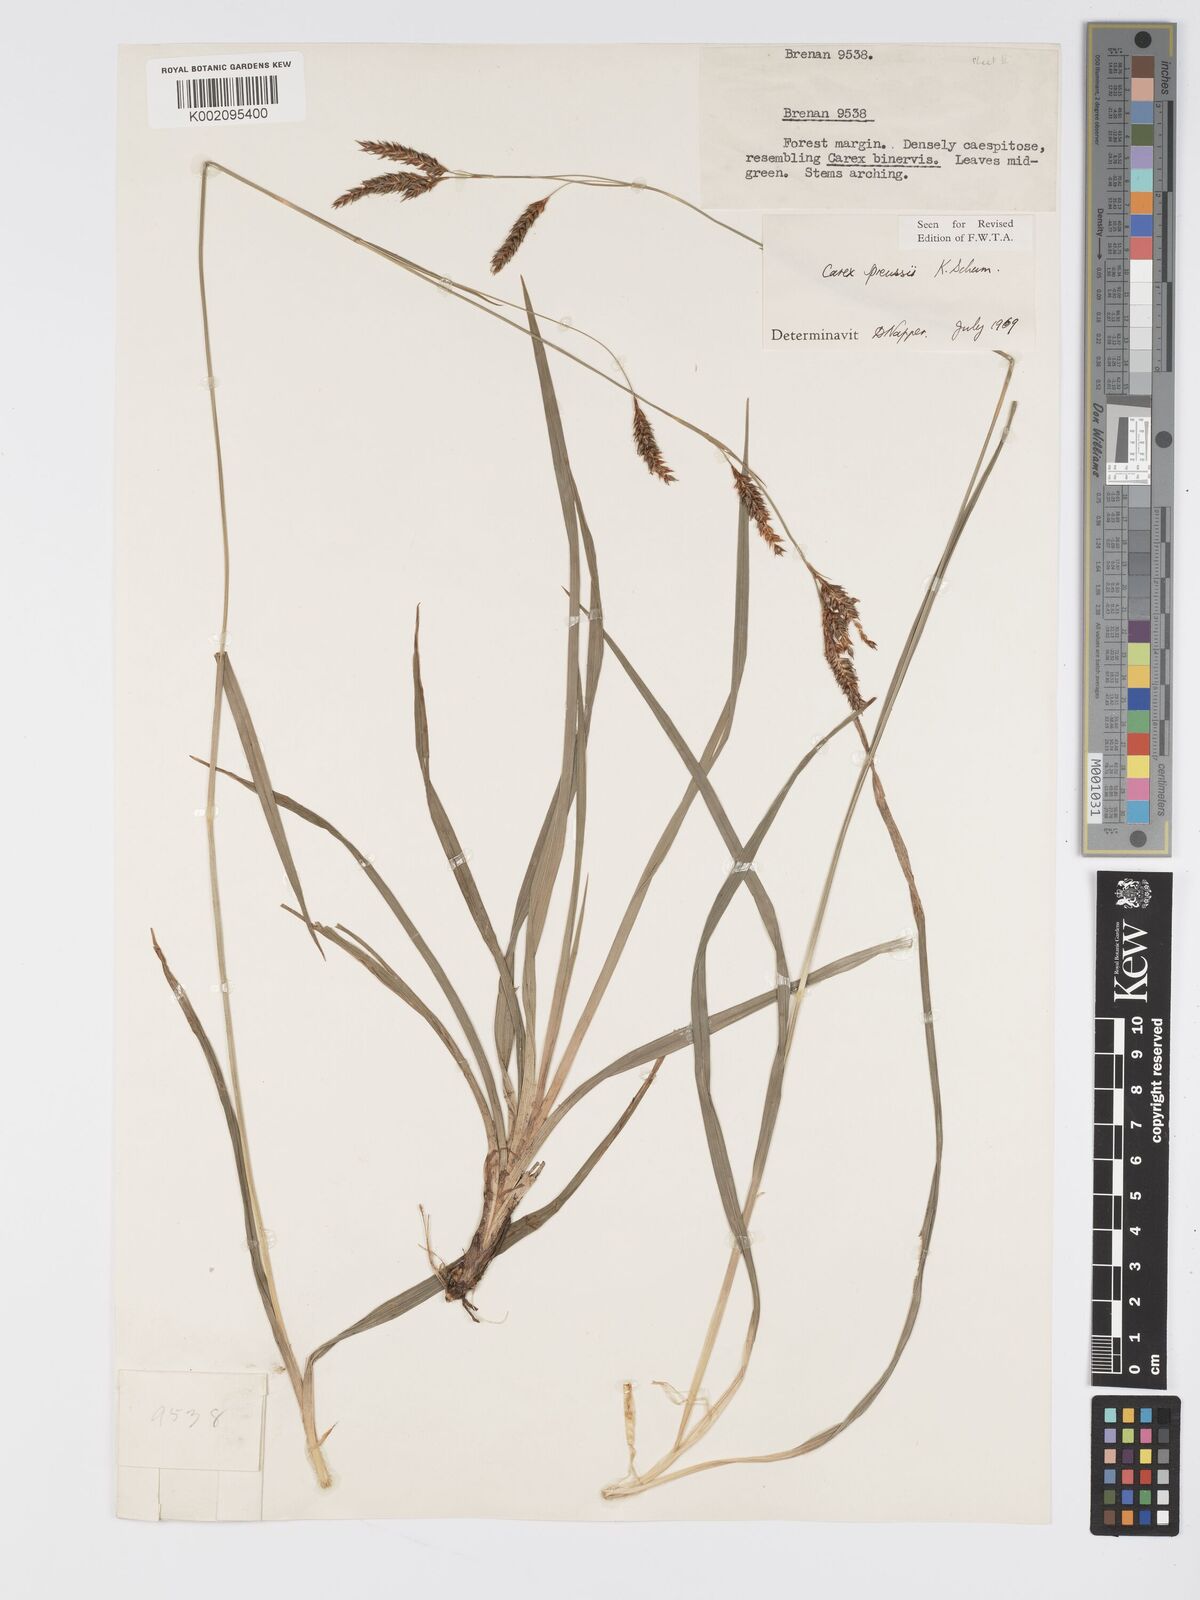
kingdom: Plantae
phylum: Tracheophyta
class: Liliopsida
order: Poales
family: Cyperaceae
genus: Carex
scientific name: Carex petitiana
